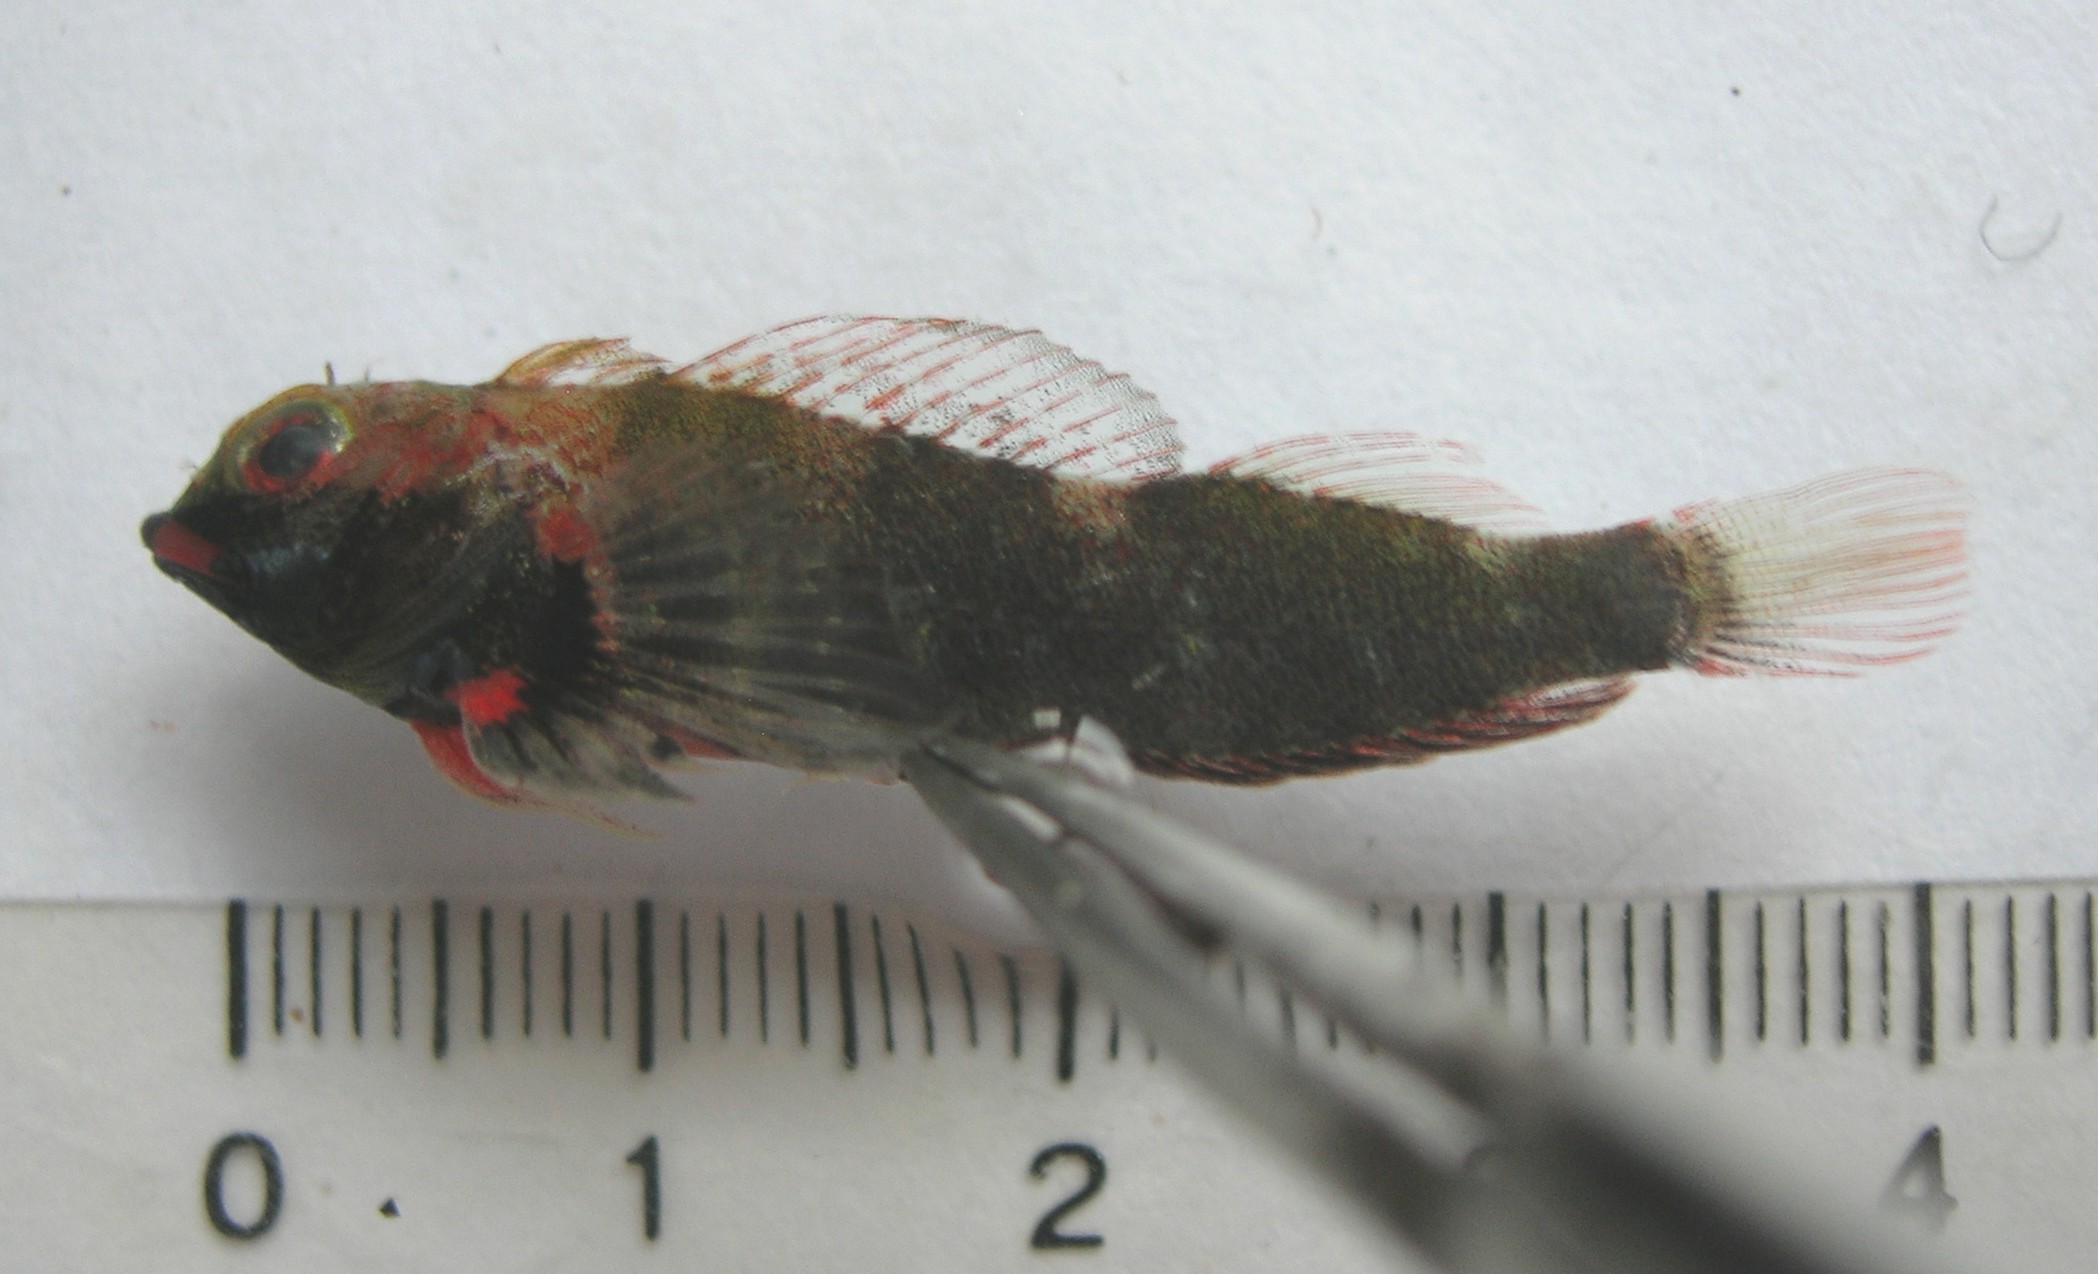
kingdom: Animalia
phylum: Chordata
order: Perciformes
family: Tripterygiidae
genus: Helcogramma
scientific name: Helcogramma rharhabe
